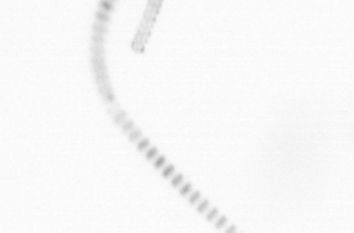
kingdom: Chromista
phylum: Ochrophyta
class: Bacillariophyceae
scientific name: Bacillariophyceae
